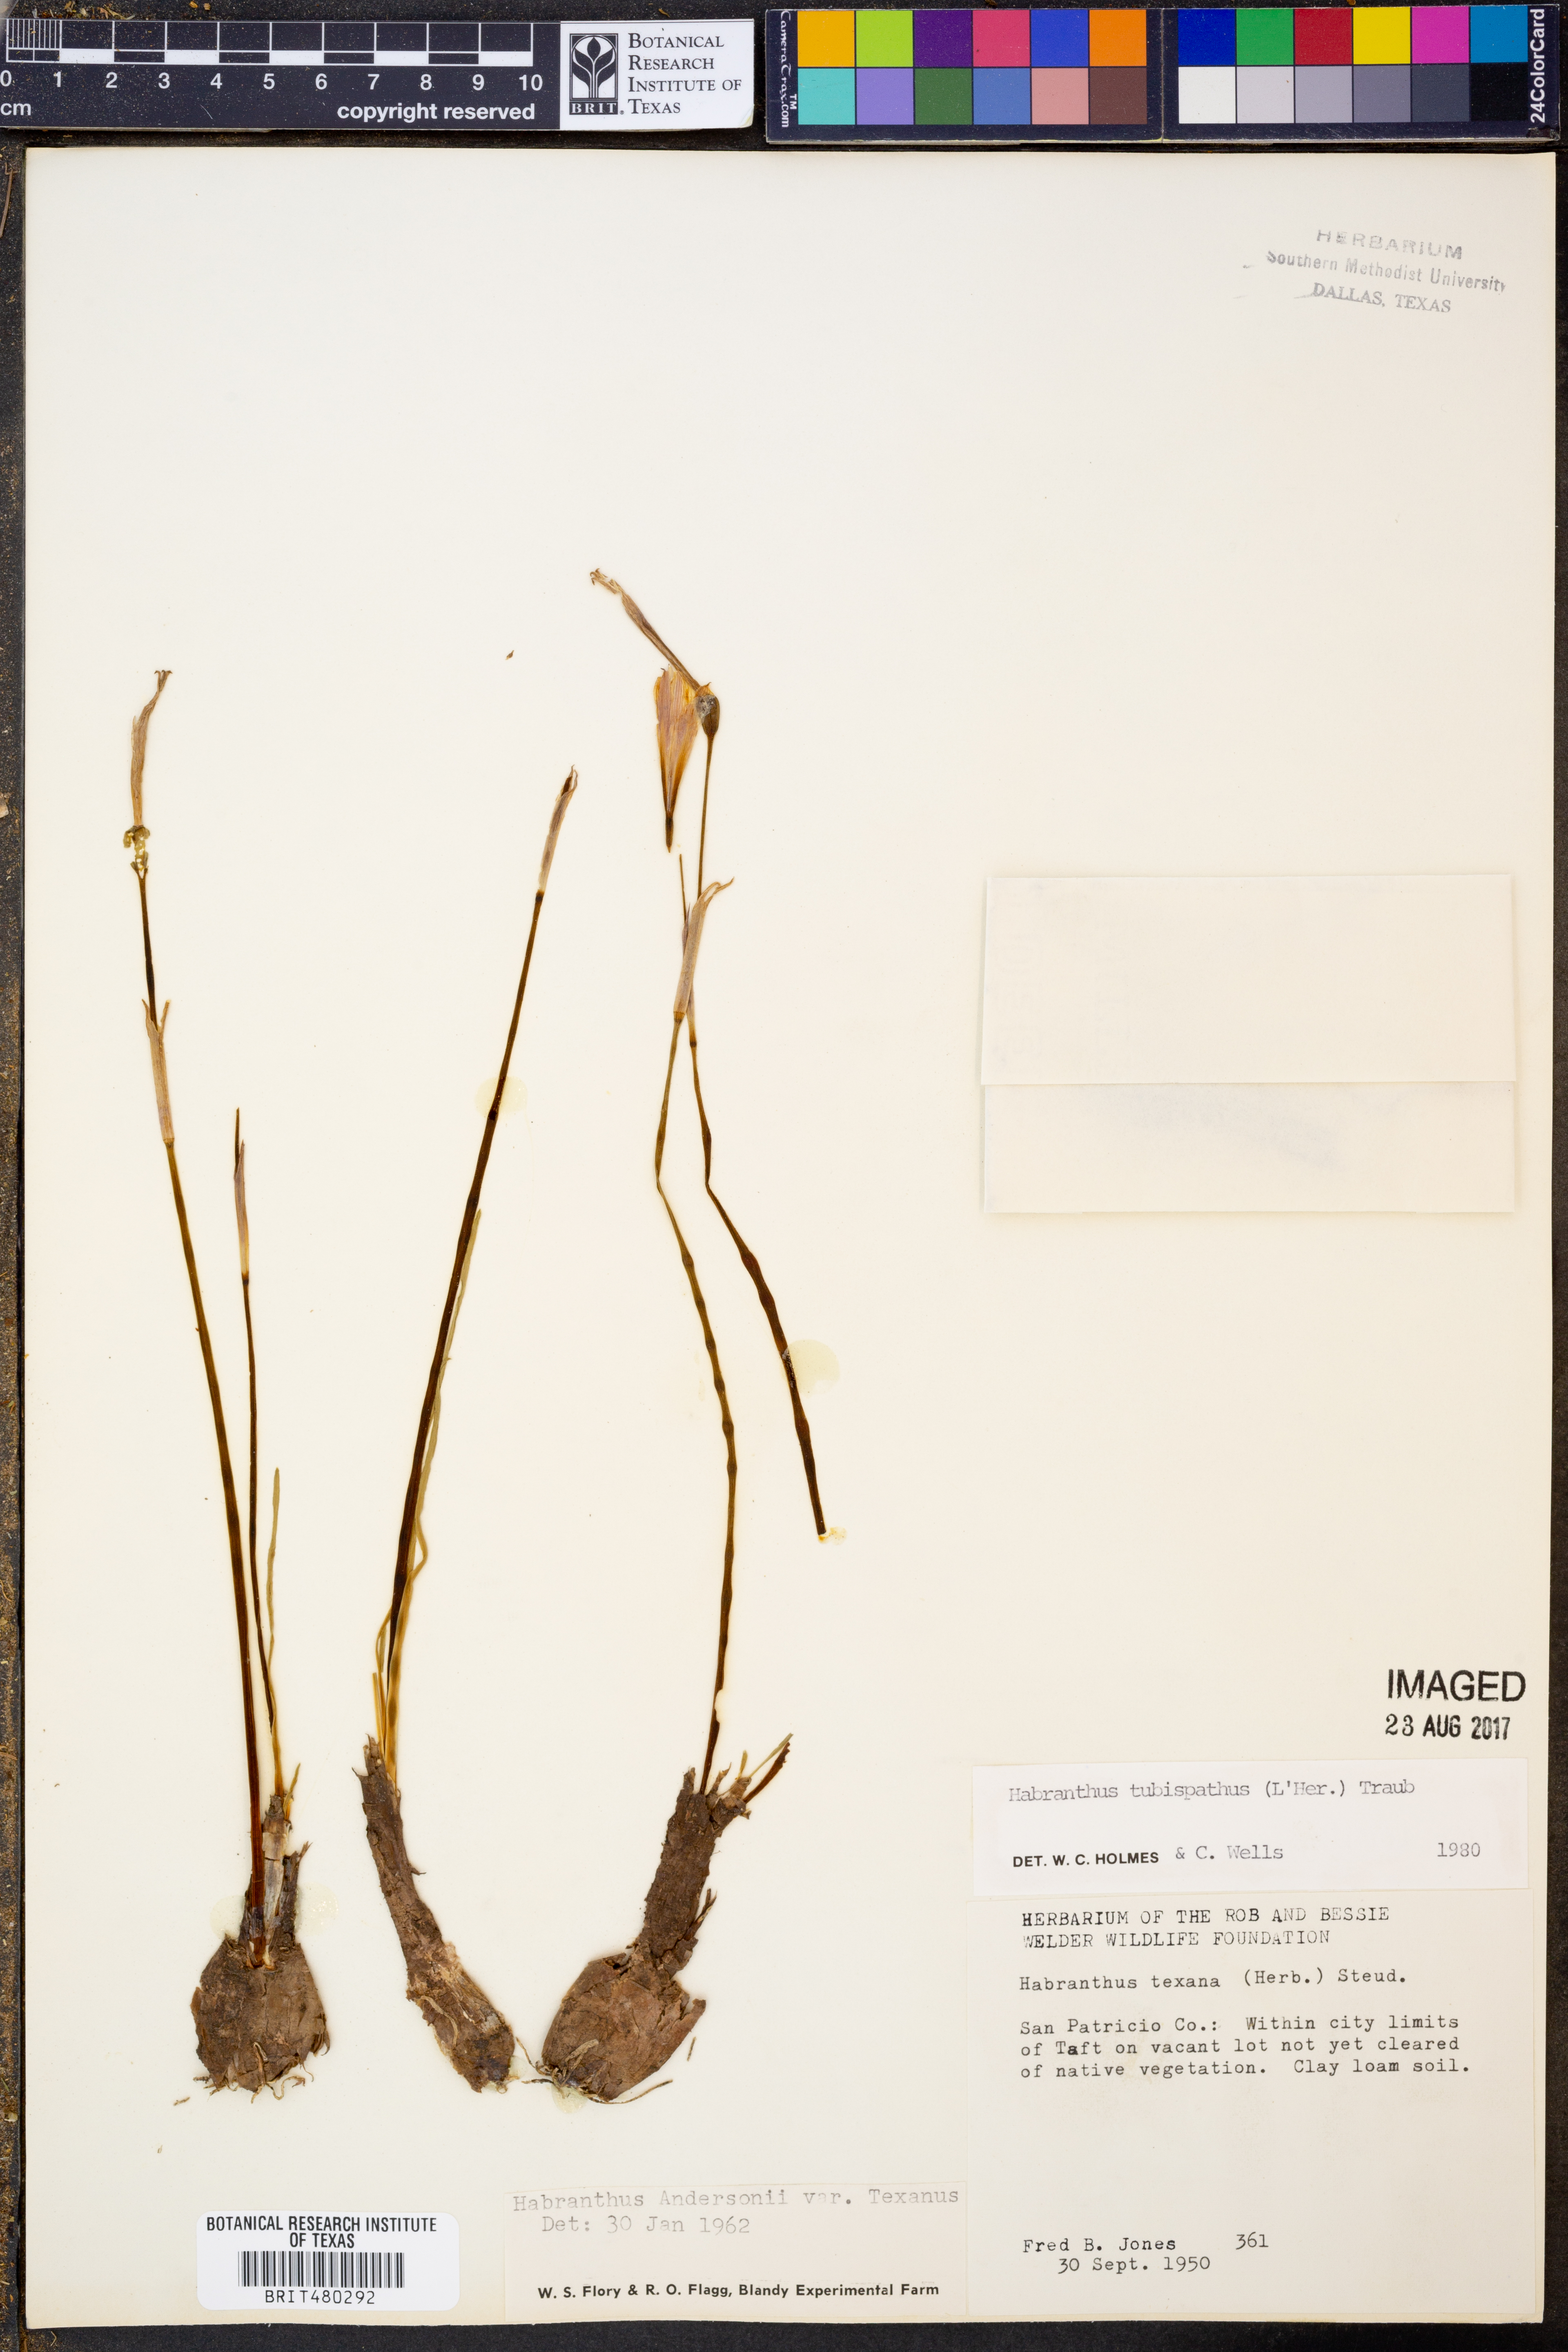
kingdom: Plantae
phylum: Tracheophyta
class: Liliopsida
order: Asparagales
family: Amaryllidaceae
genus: Zephyranthes
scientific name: Zephyranthes tubispatha
